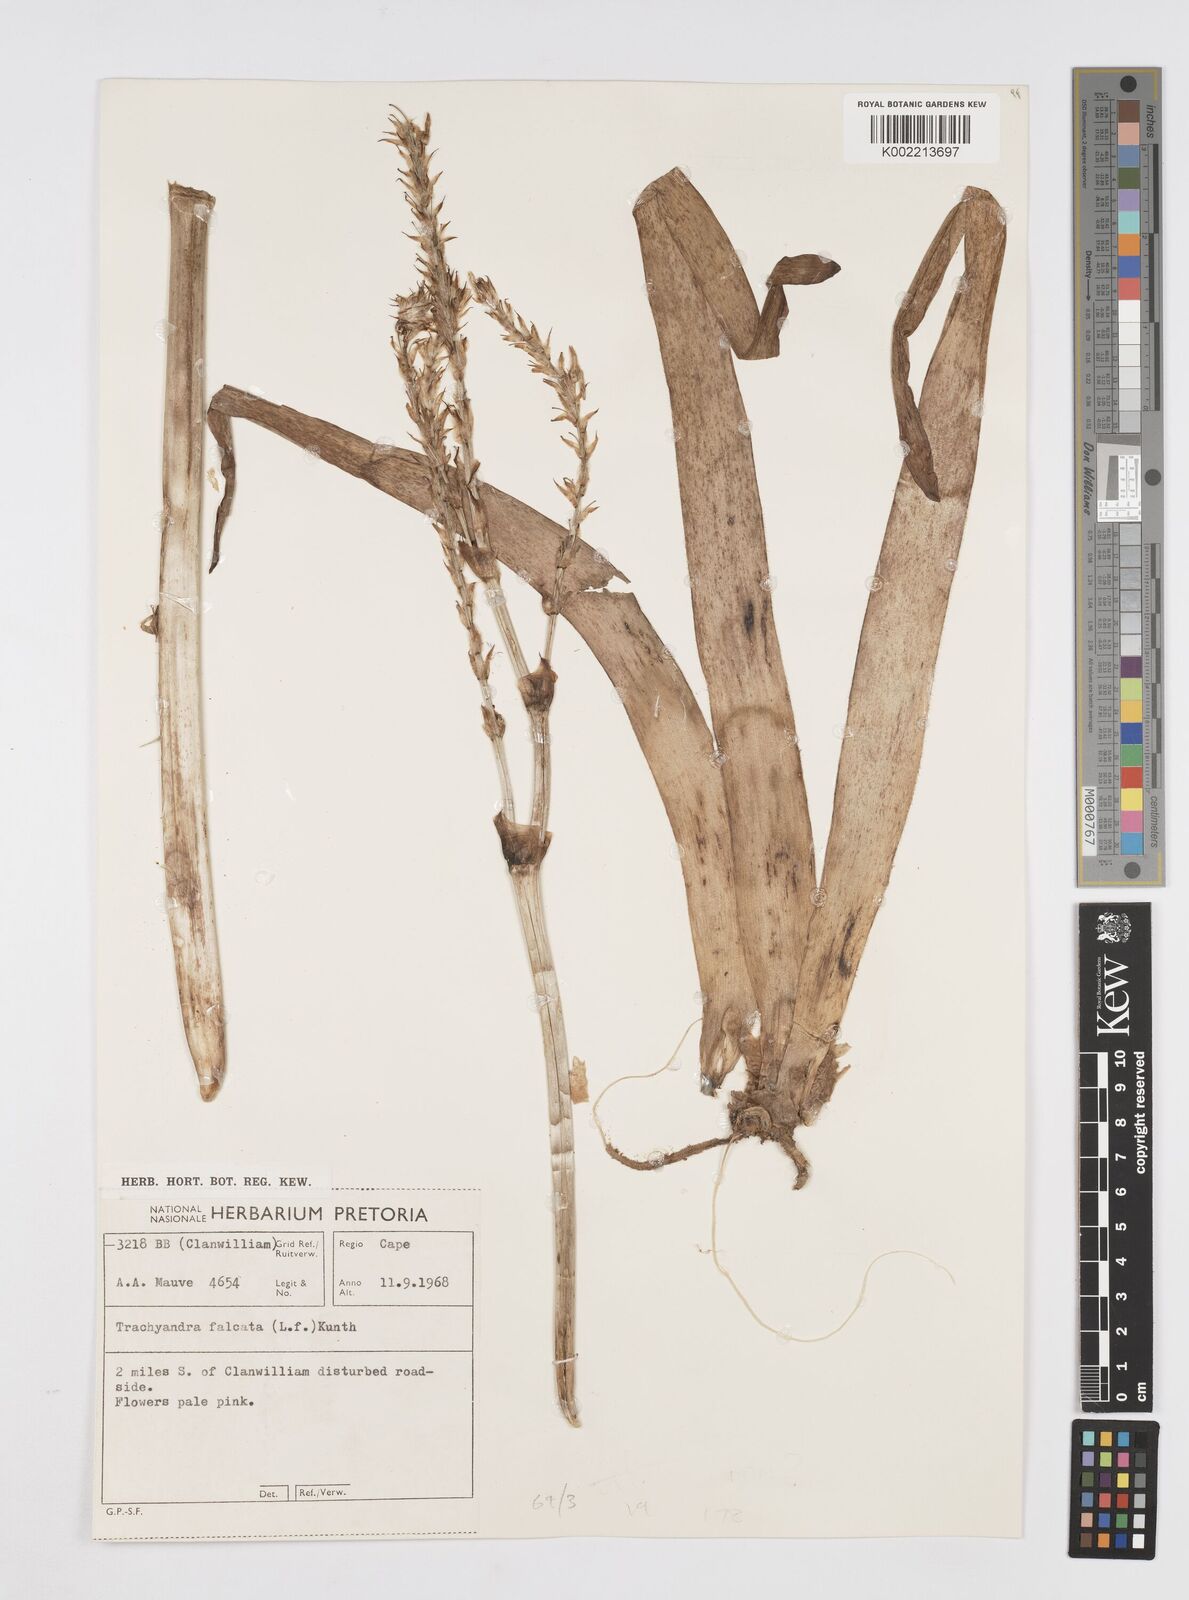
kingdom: Plantae
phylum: Tracheophyta
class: Liliopsida
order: Asparagales
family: Asphodelaceae
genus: Trachyandra
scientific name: Trachyandra falcata
